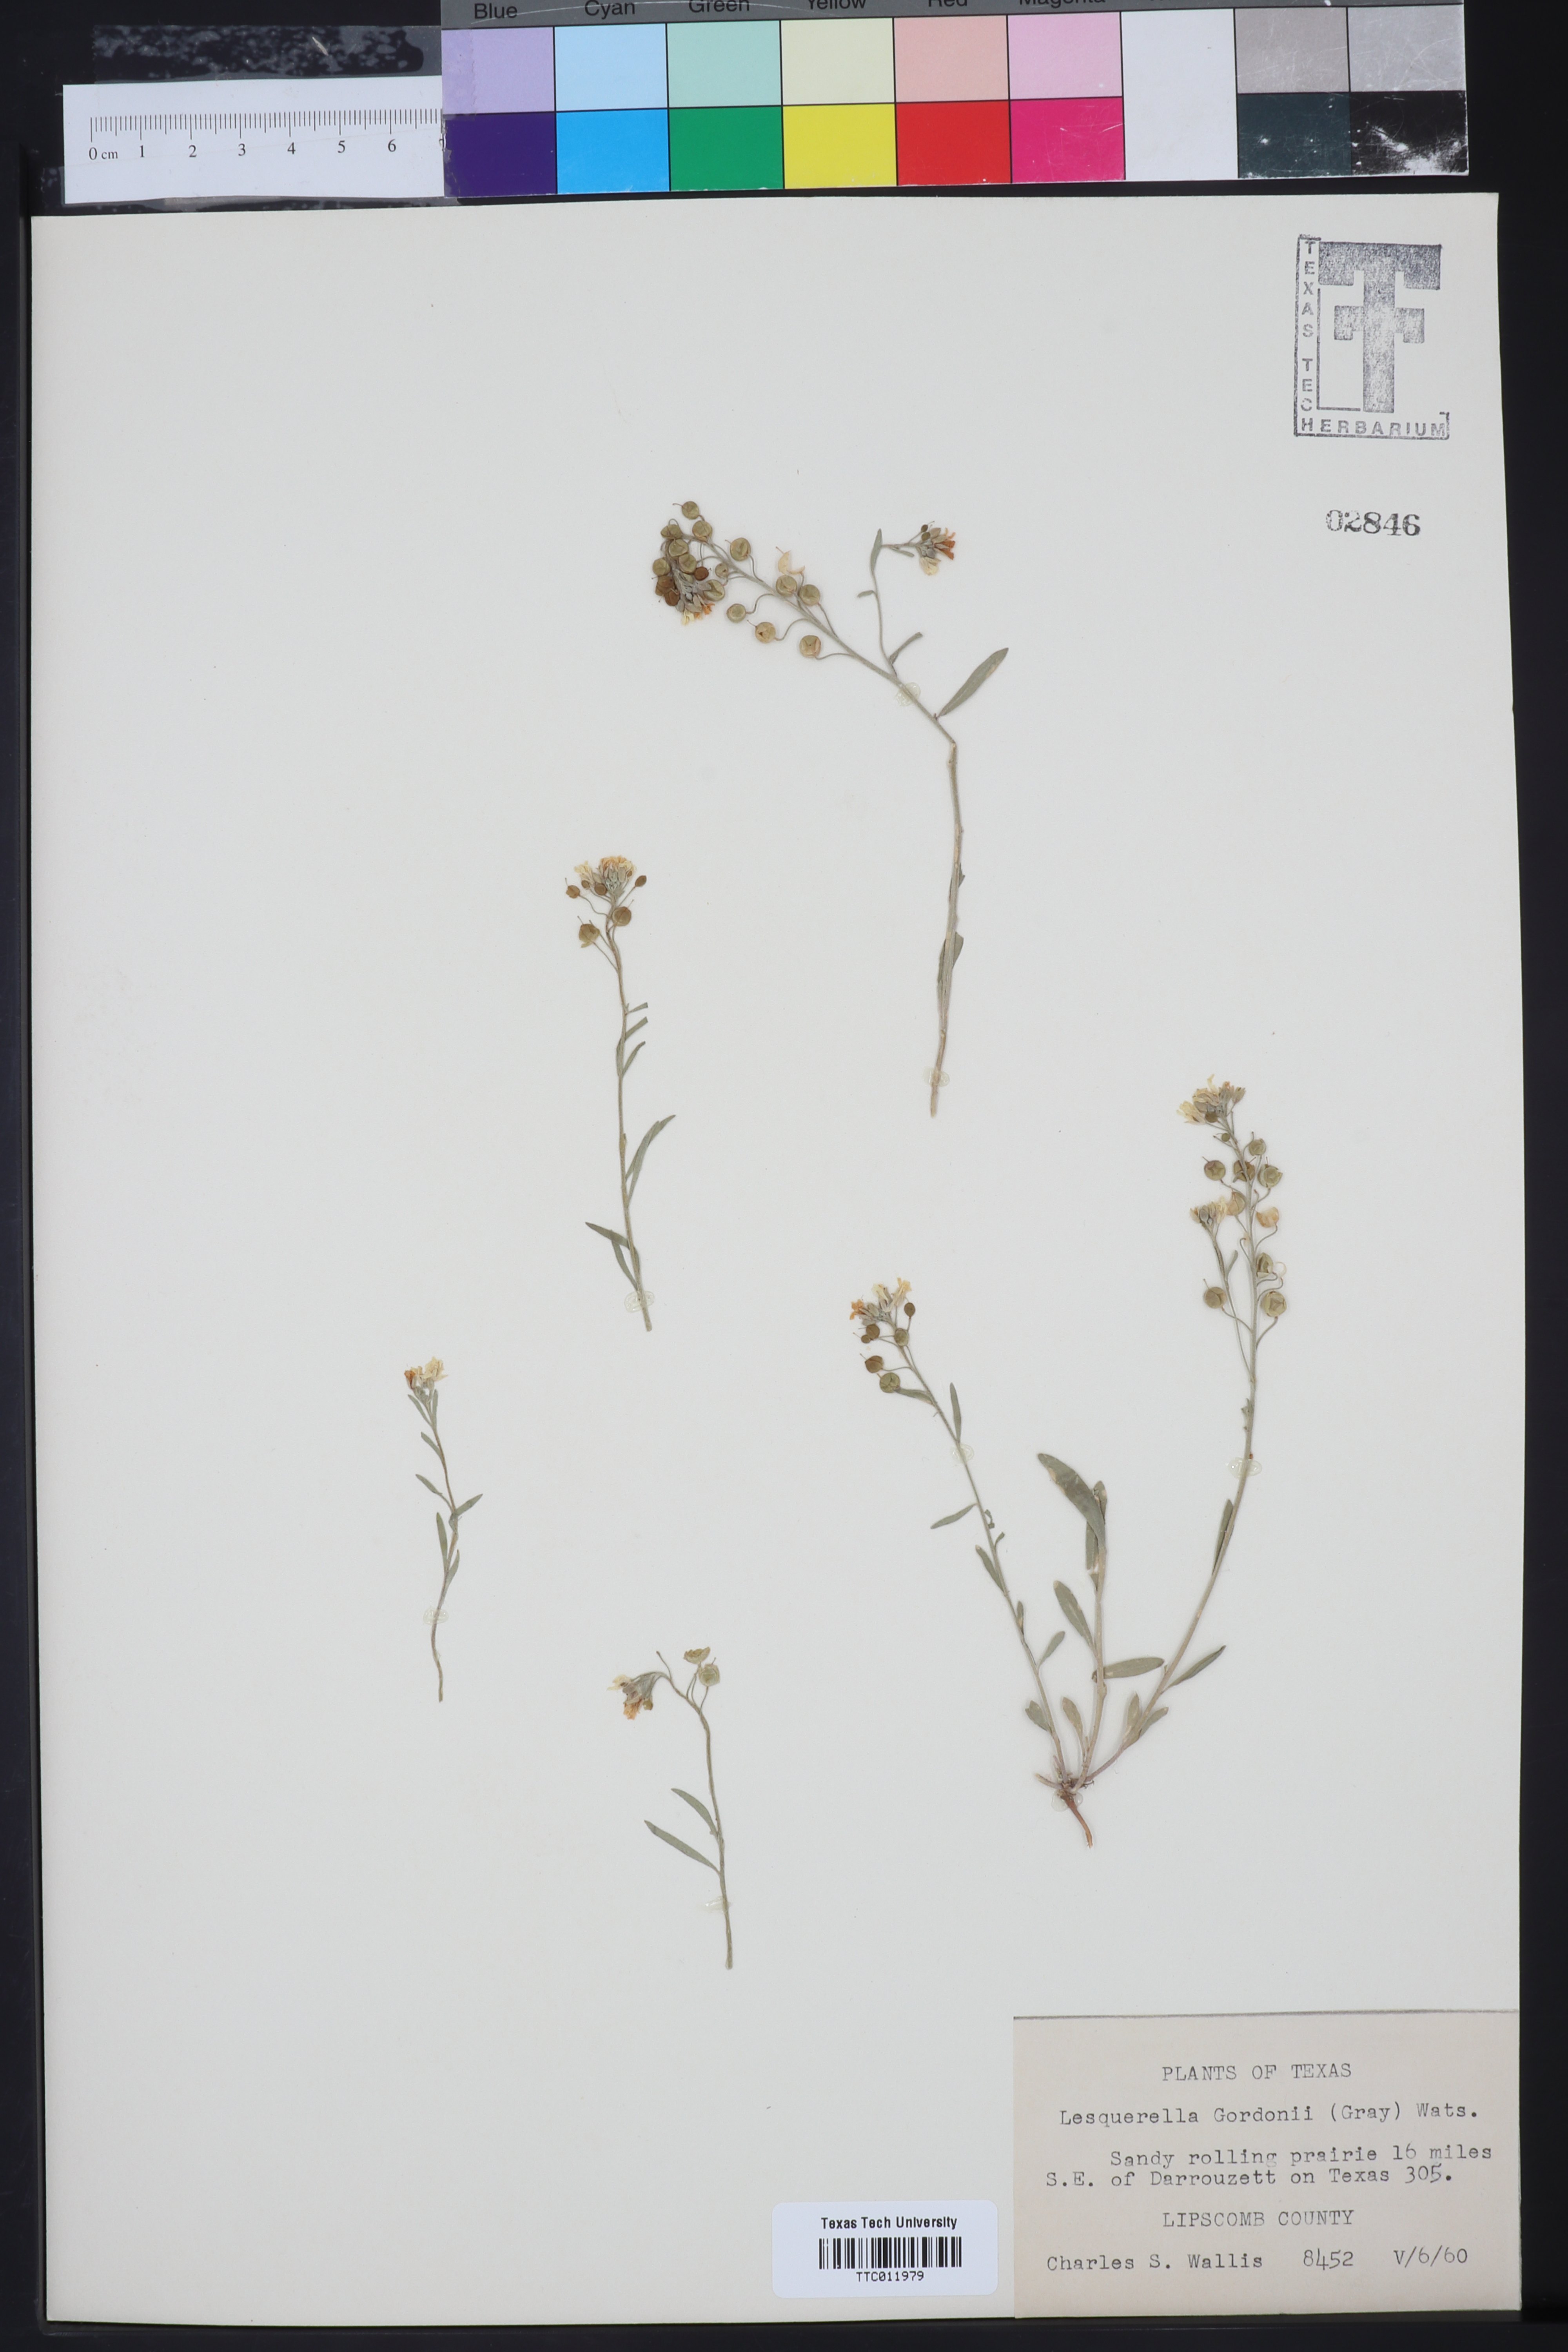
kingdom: Plantae
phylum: Tracheophyta
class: Magnoliopsida
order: Brassicales
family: Brassicaceae
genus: Physaria
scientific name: Physaria gordonii
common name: Gordon's bladderpod
